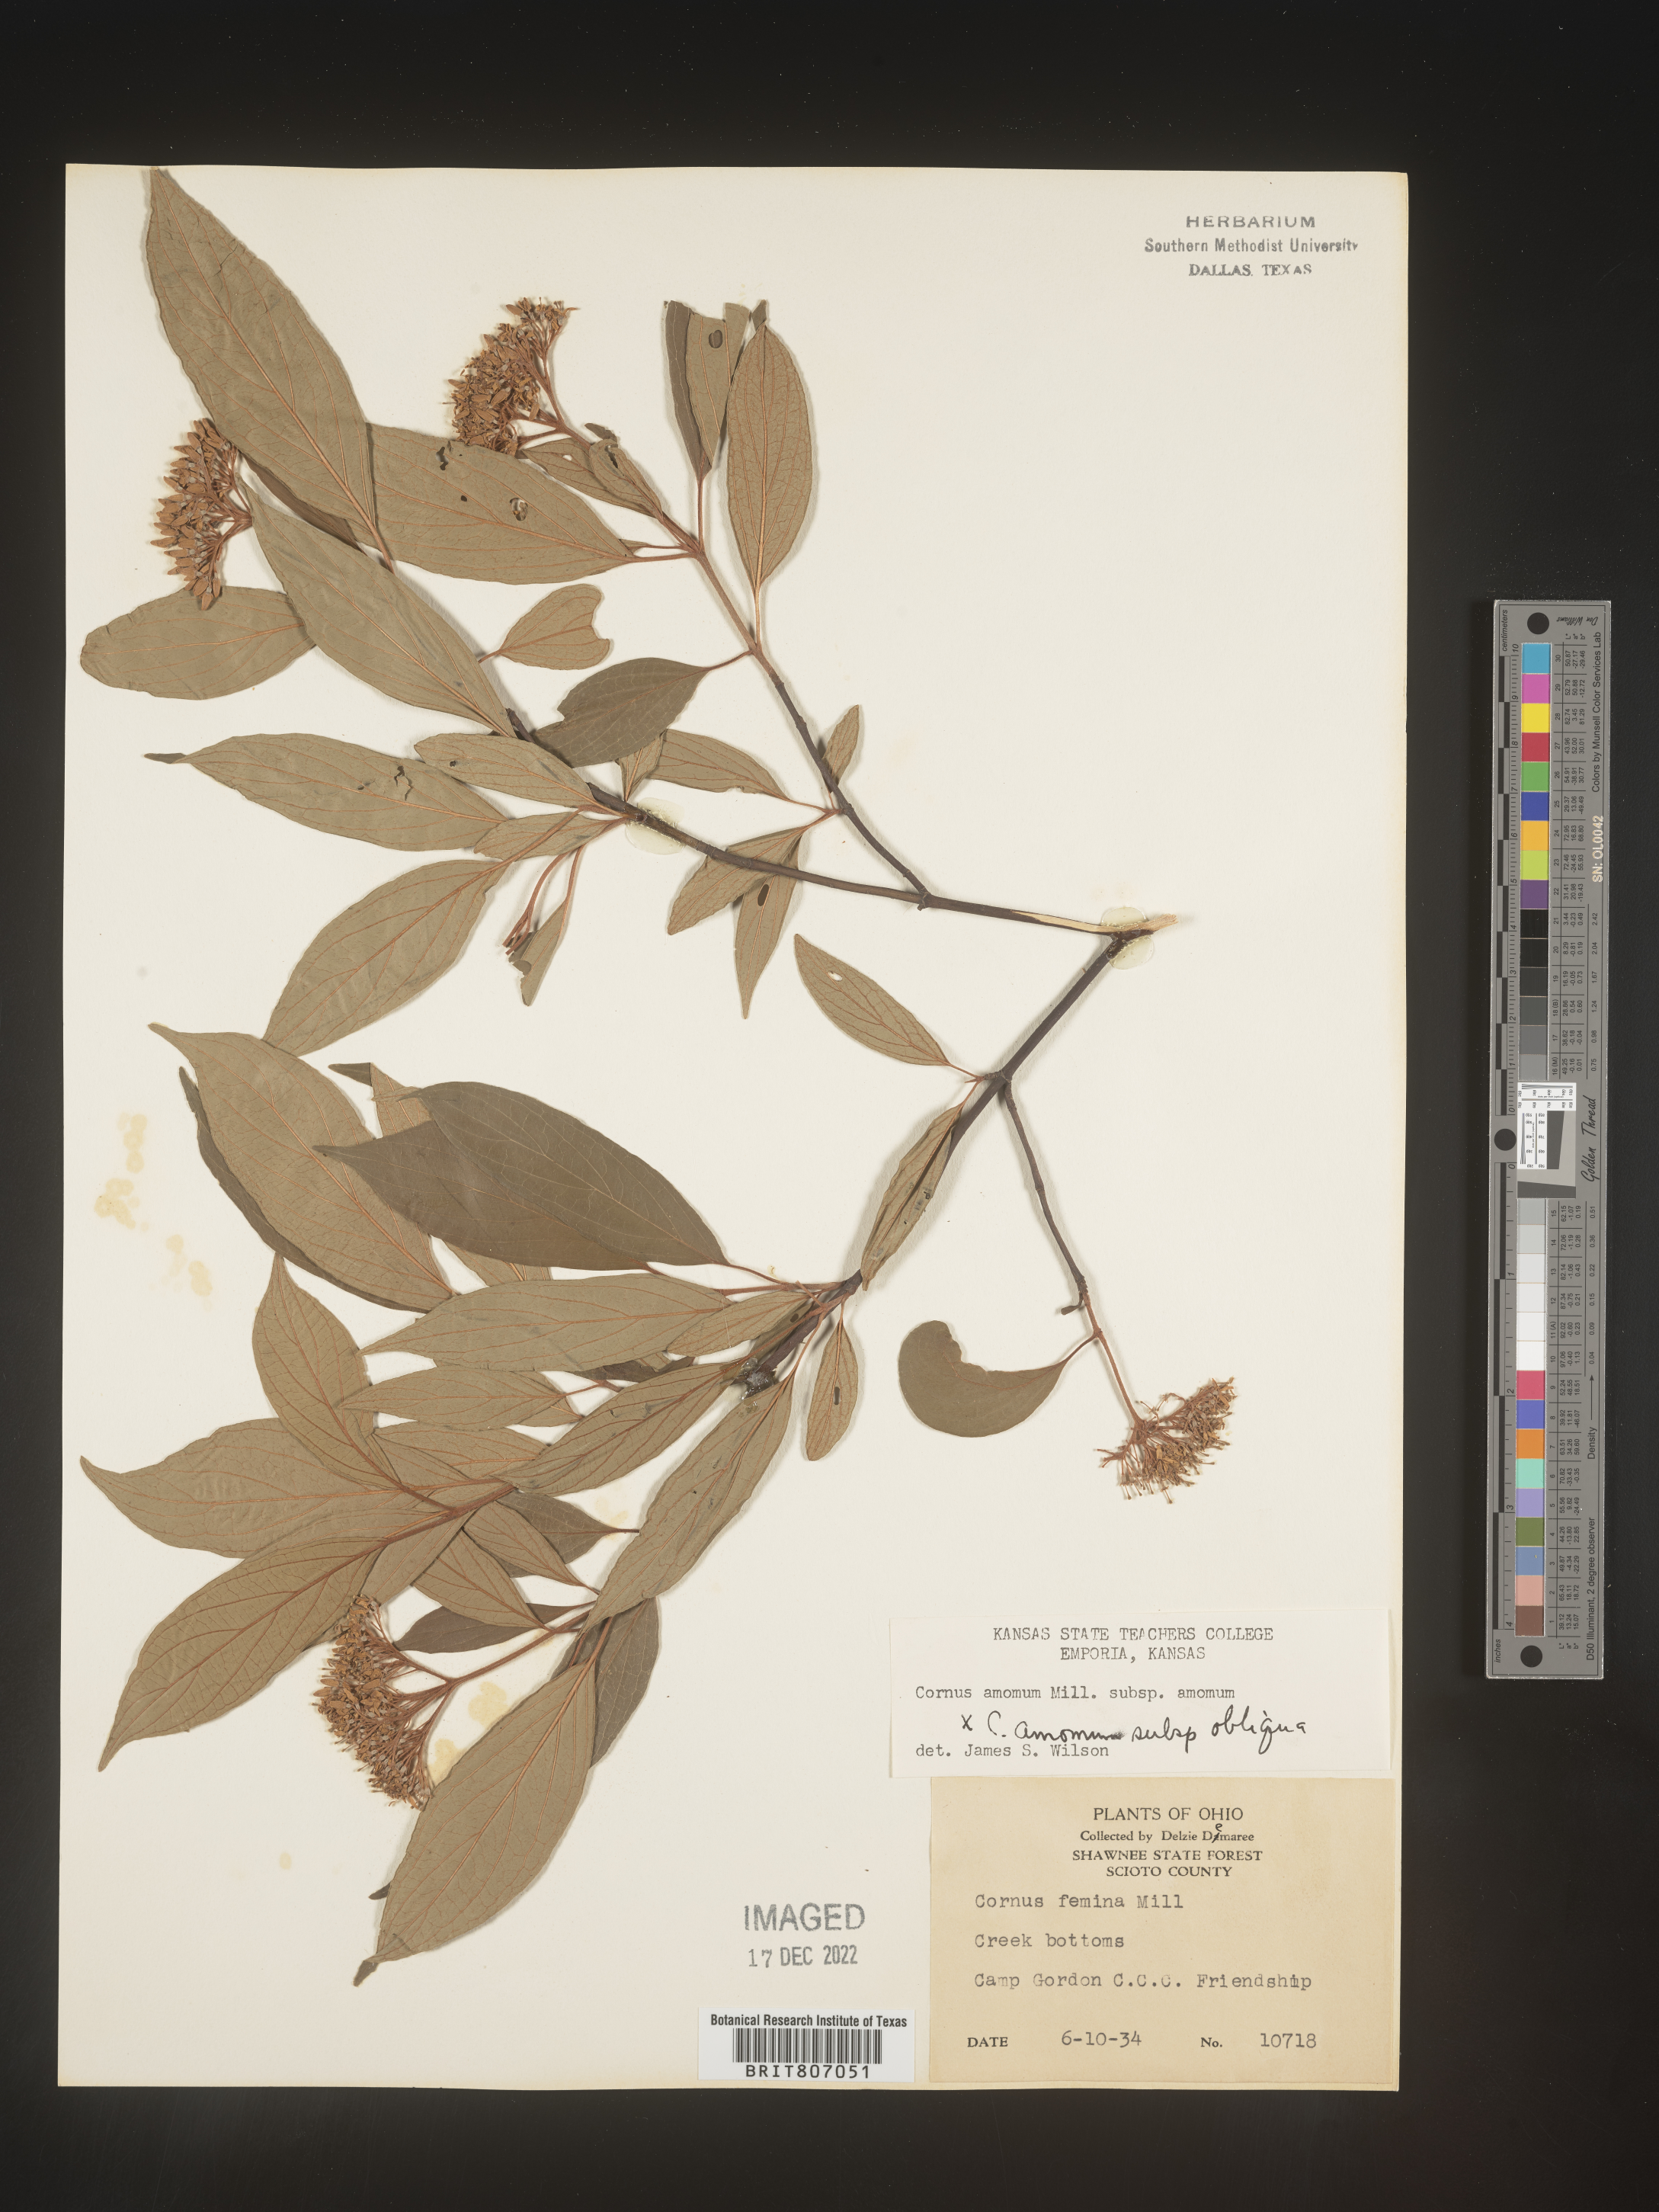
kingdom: Plantae
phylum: Tracheophyta
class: Magnoliopsida
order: Cornales
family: Cornaceae
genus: Cornus
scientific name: Cornus amomum
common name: Silky dogwood
